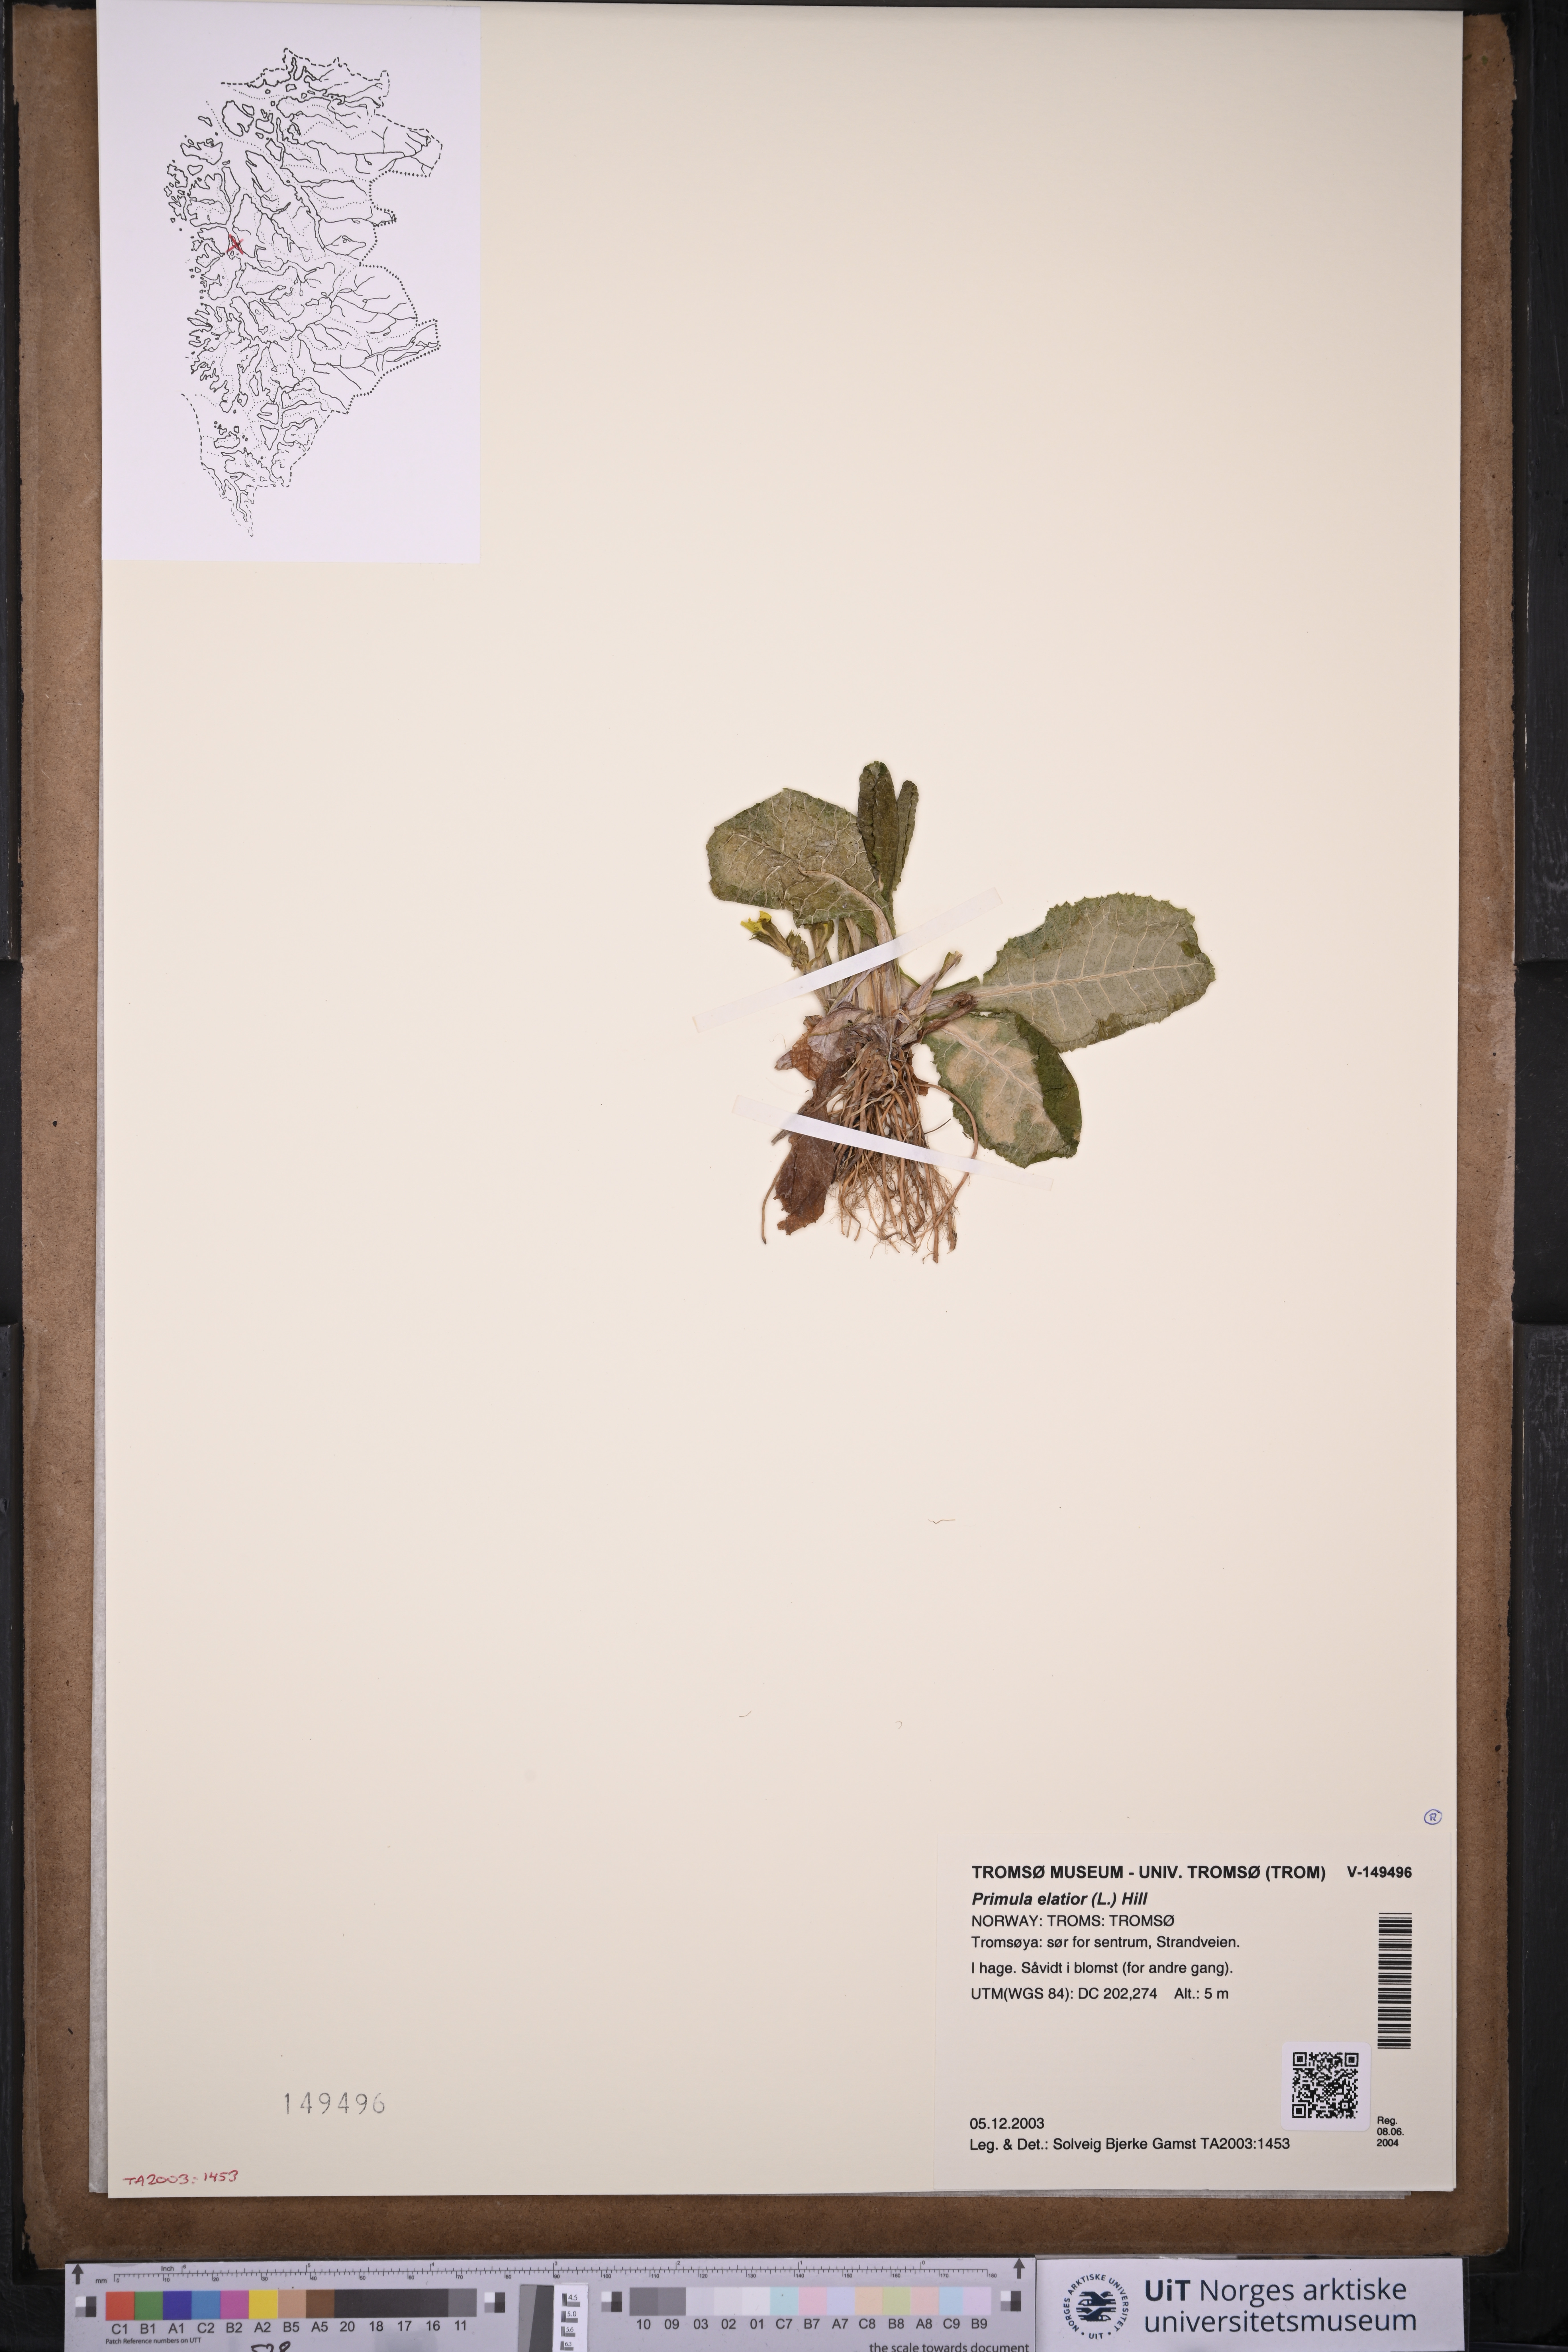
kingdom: Plantae
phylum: Tracheophyta
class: Magnoliopsida
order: Ericales
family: Primulaceae
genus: Primula
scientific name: Primula elatior
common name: Oxlip
